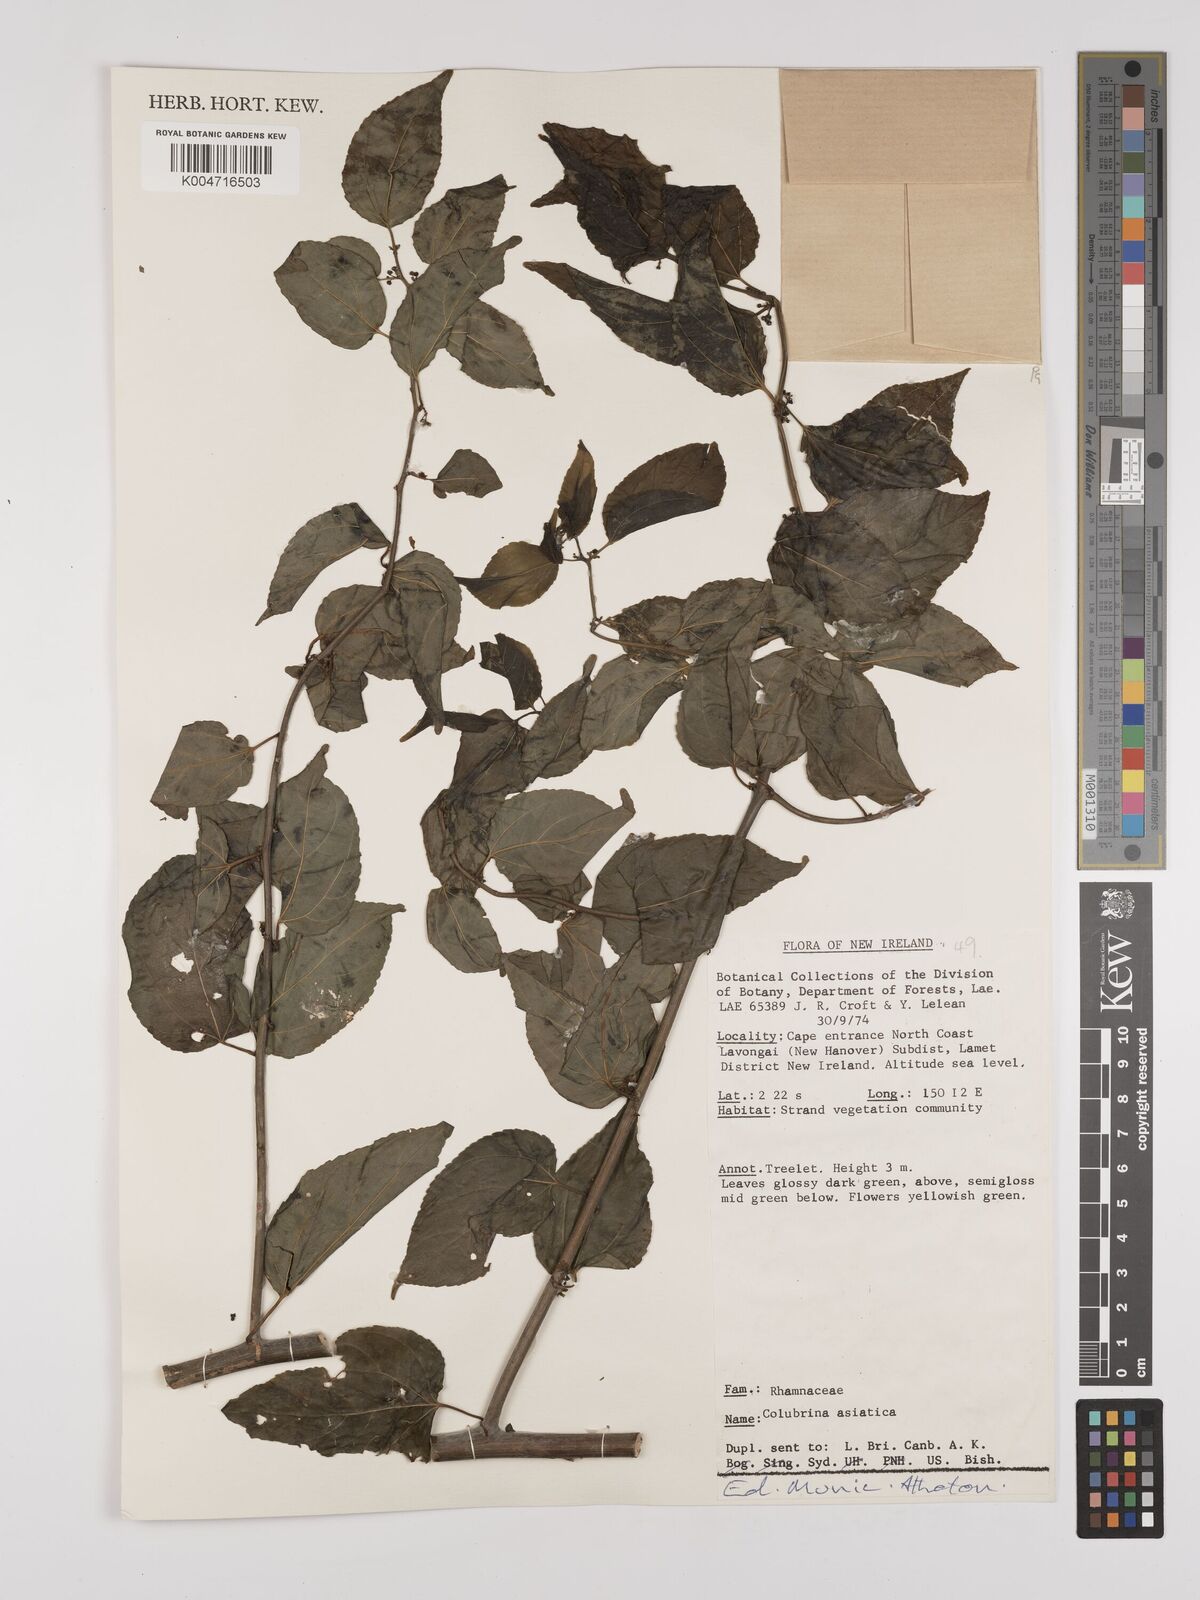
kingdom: Plantae
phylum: Tracheophyta
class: Magnoliopsida
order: Rosales
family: Rhamnaceae
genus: Colubrina
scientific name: Colubrina asiatica
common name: Asian nakedwood
